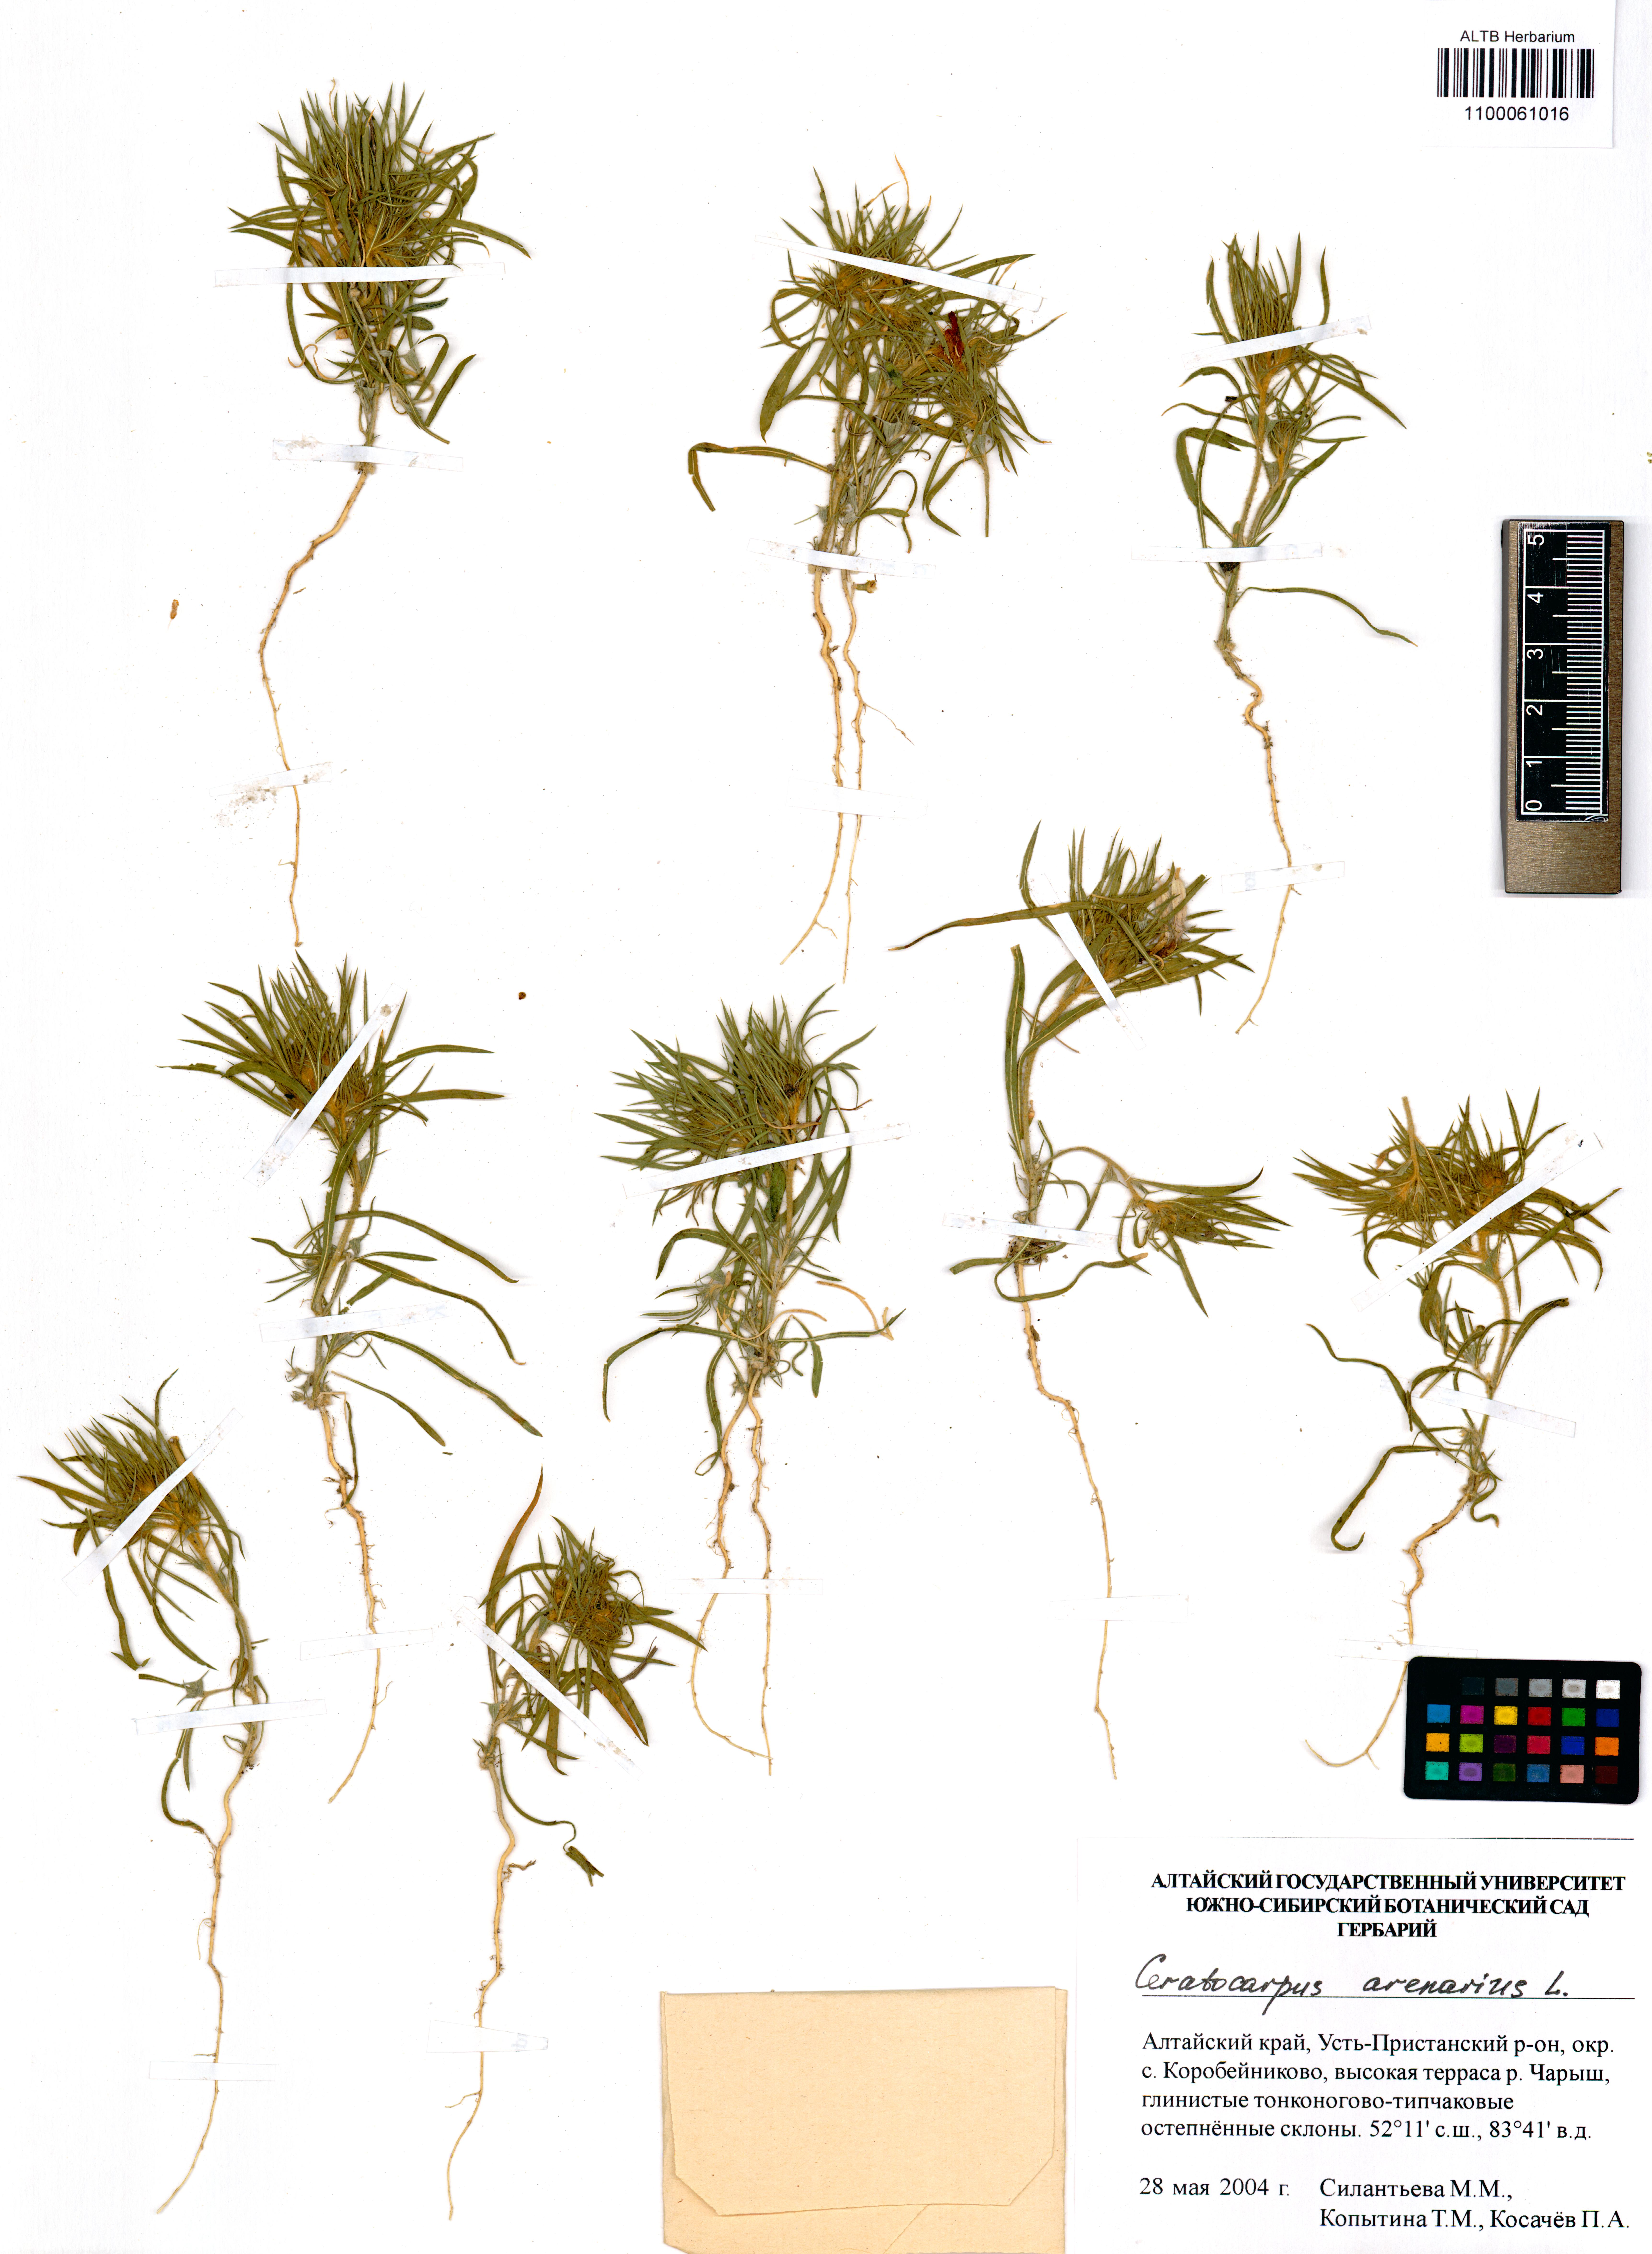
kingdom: Plantae
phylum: Tracheophyta
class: Magnoliopsida
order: Caryophyllales
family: Amaranthaceae
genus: Ceratocarpus
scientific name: Ceratocarpus arenarius
